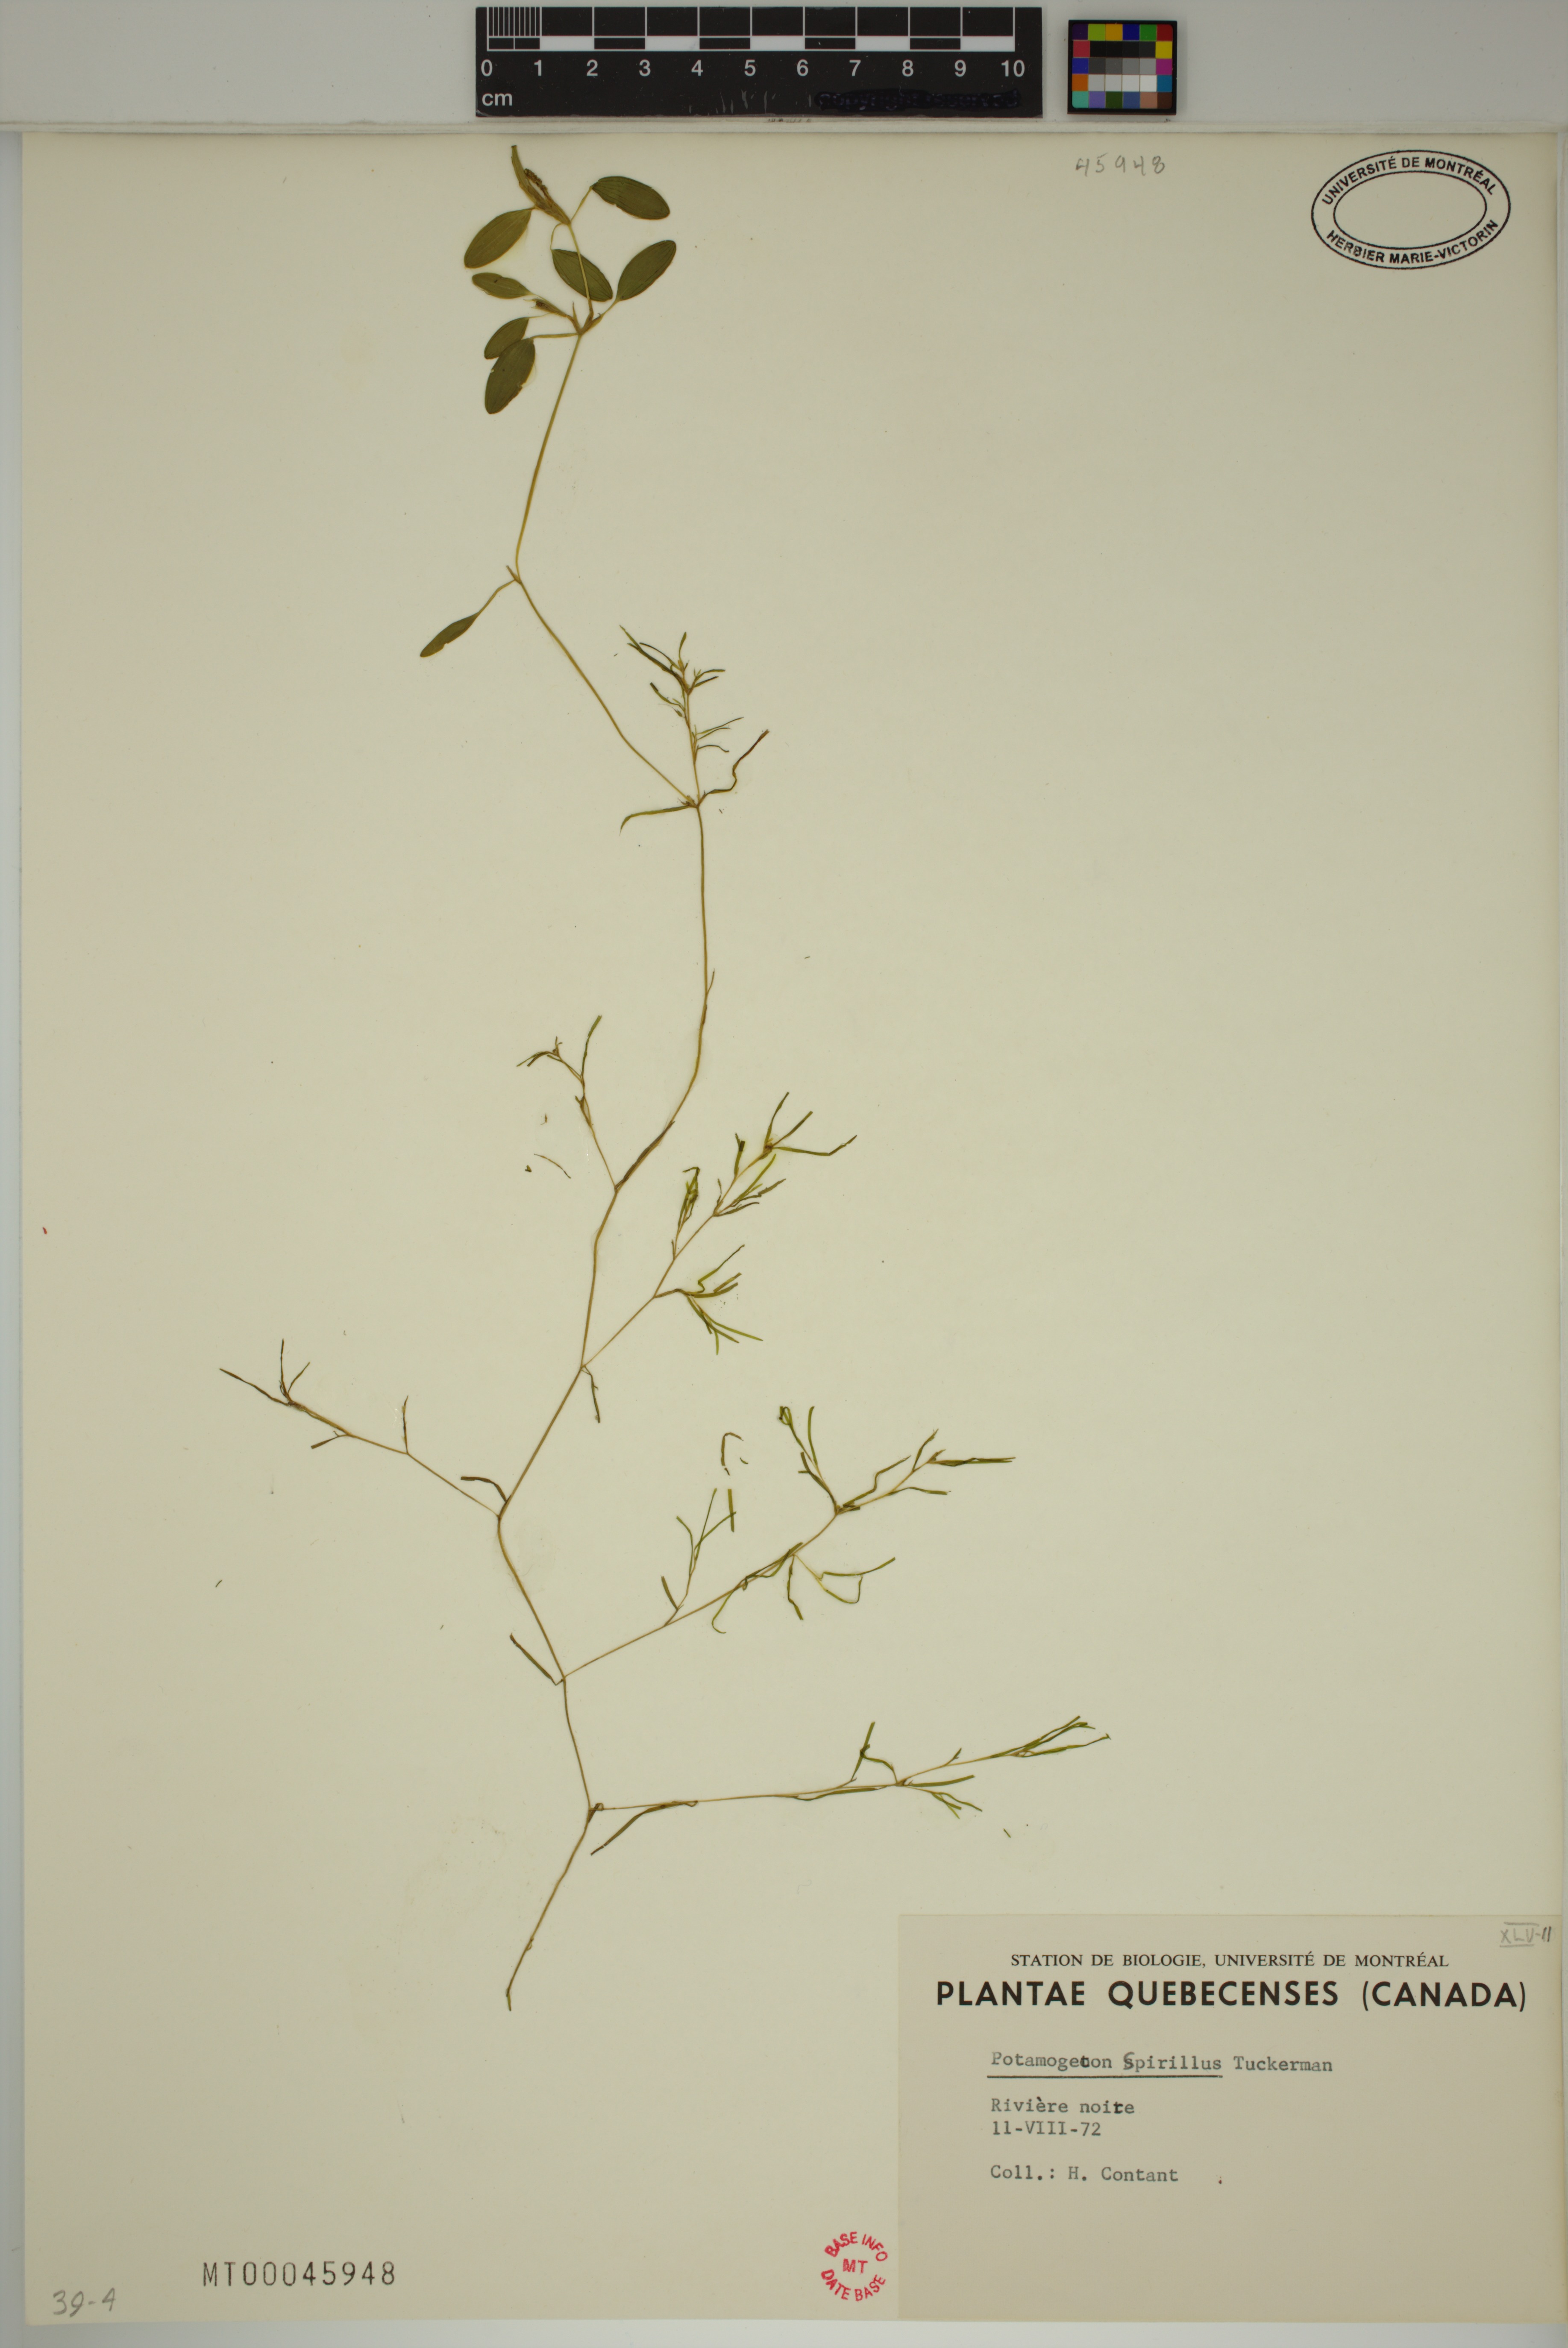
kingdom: Plantae
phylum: Tracheophyta
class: Liliopsida
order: Alismatales
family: Potamogetonaceae
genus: Potamogeton
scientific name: Potamogeton spirillus
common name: Northern snail-seed pondweed
